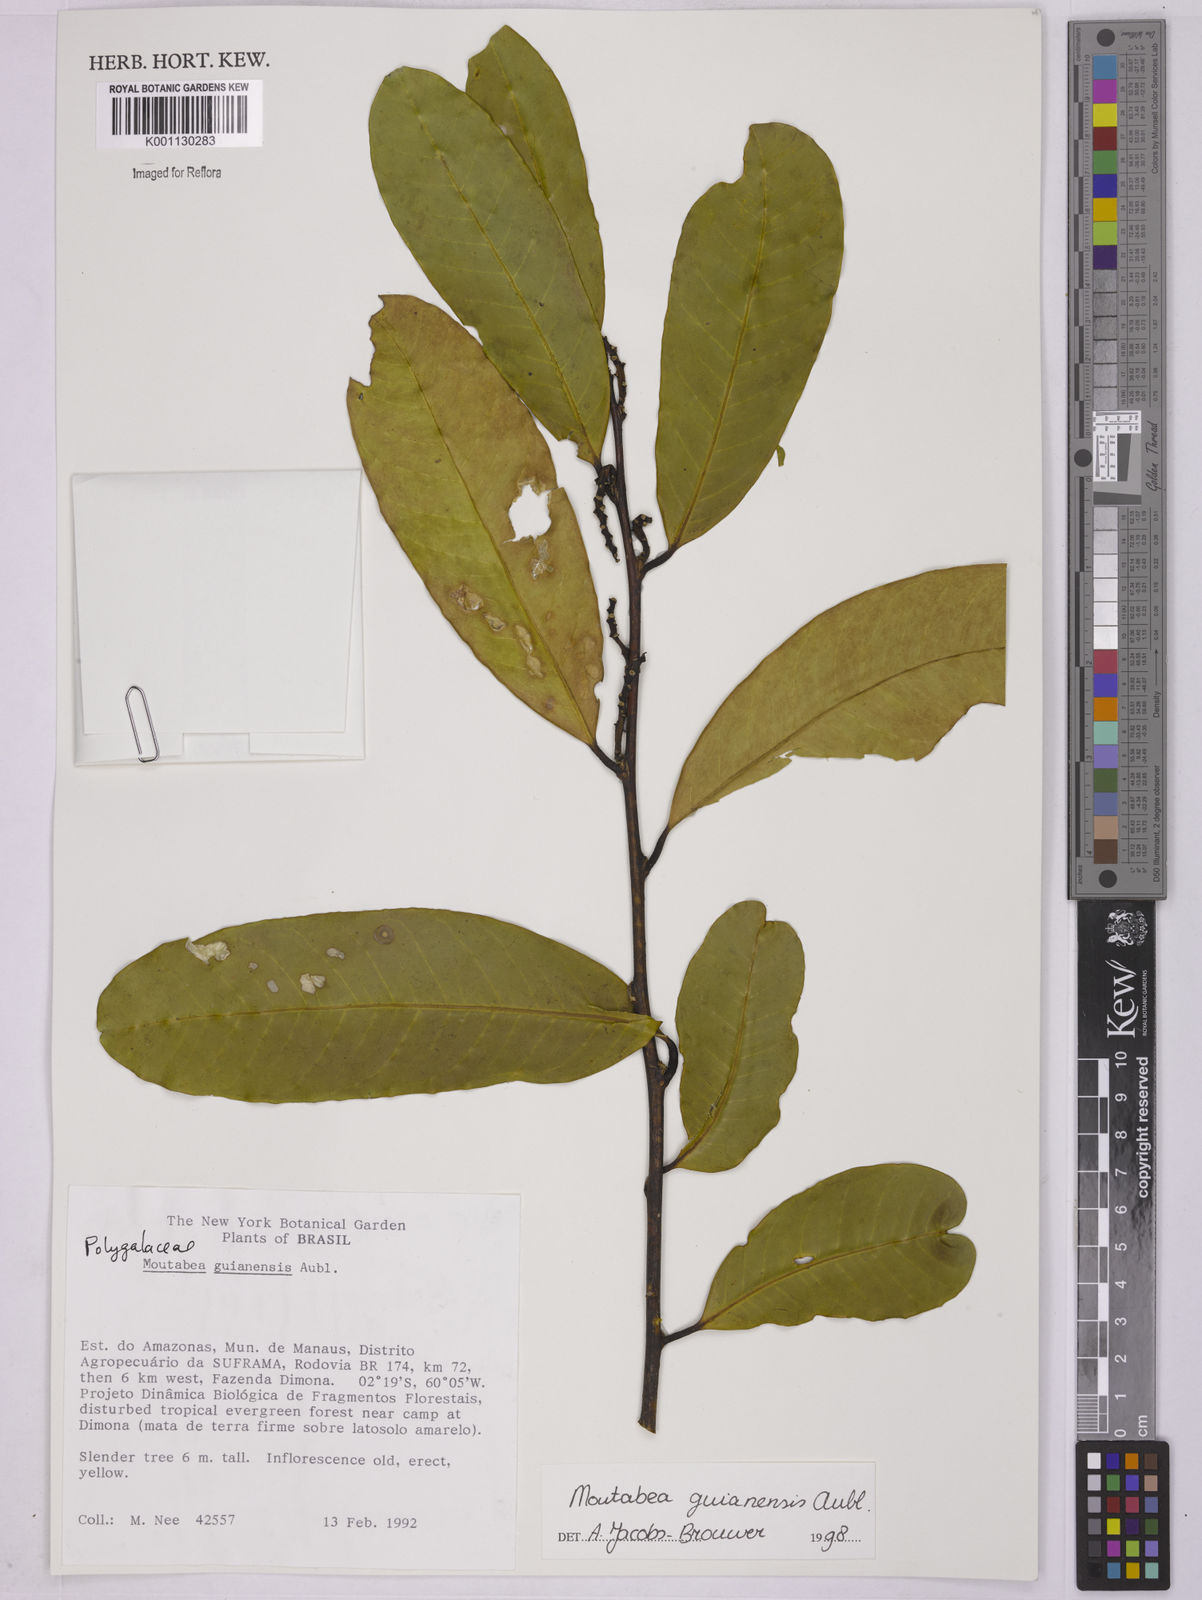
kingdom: Plantae
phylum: Tracheophyta
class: Magnoliopsida
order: Fabales
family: Polygalaceae
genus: Moutabea
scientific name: Moutabea guianensis
